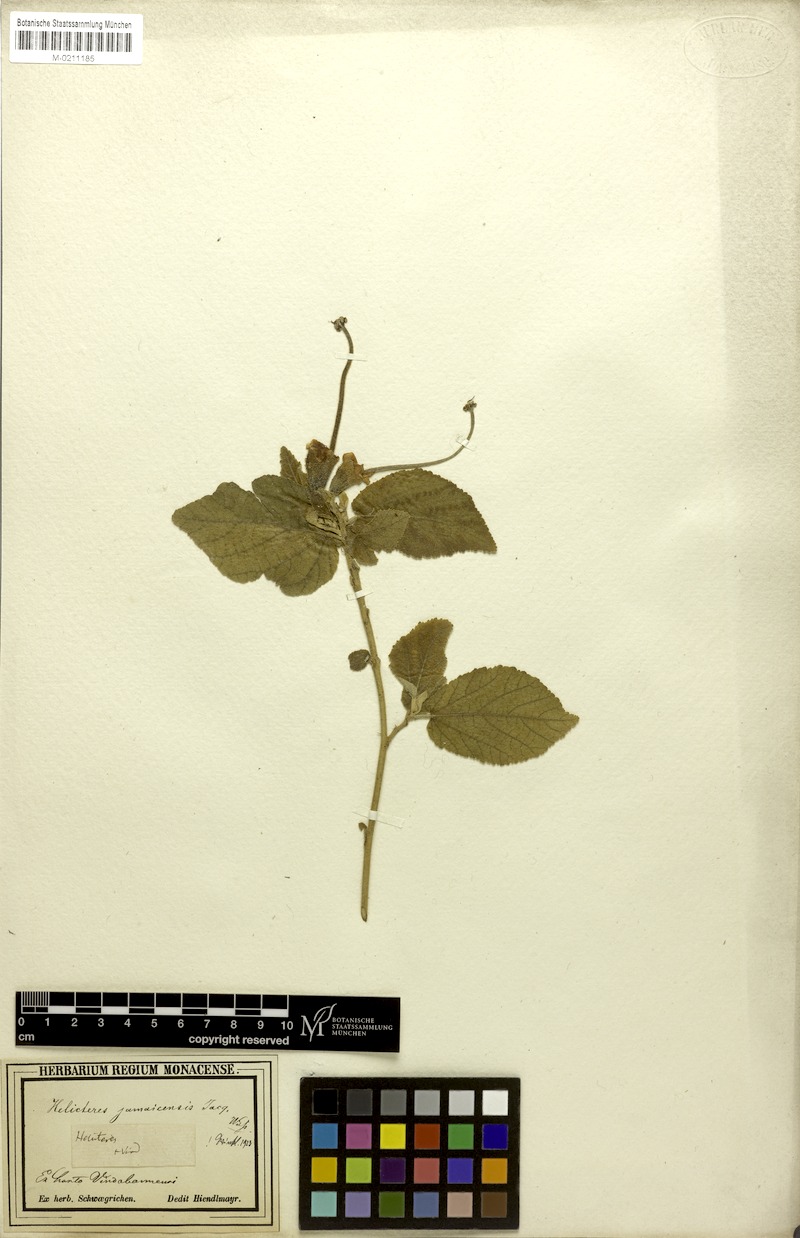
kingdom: Plantae
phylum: Tracheophyta
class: Magnoliopsida
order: Malvales
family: Malvaceae
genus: Helicteres
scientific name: Helicteres jamaicensis
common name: Cowbush
